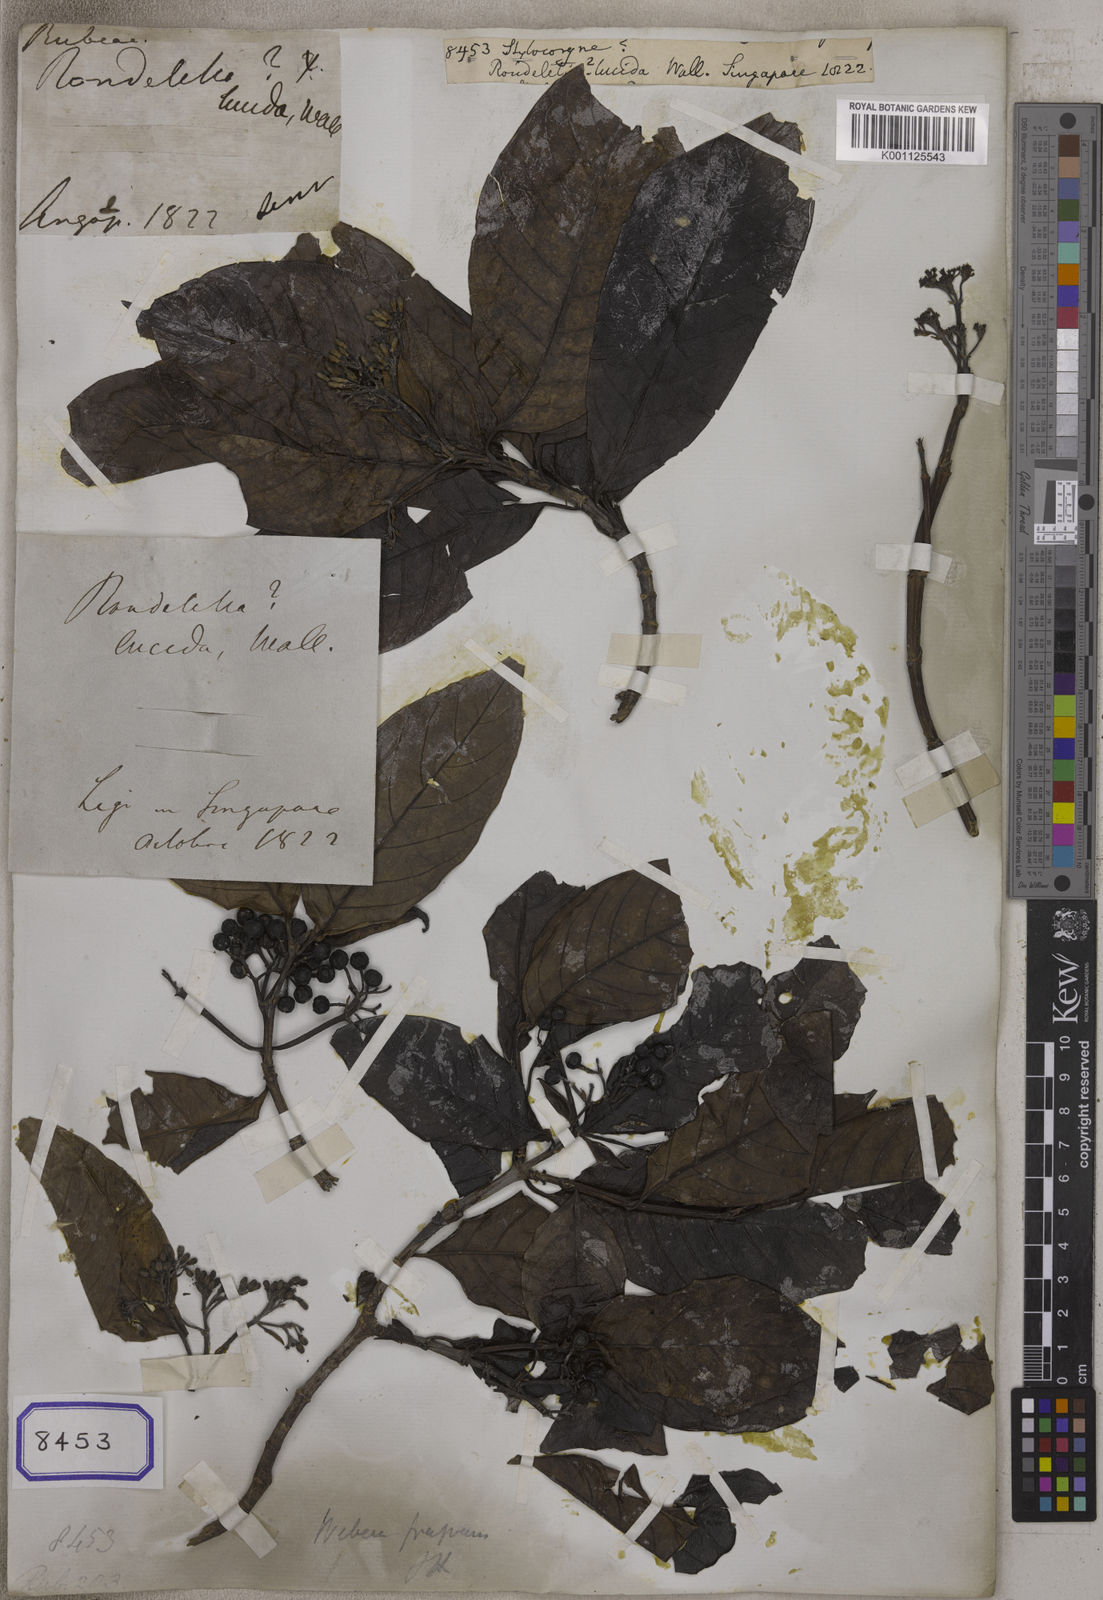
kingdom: Plantae
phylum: Tracheophyta
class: Magnoliopsida
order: Gentianales
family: Rubiaceae
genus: Aidia
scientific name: Aidia
